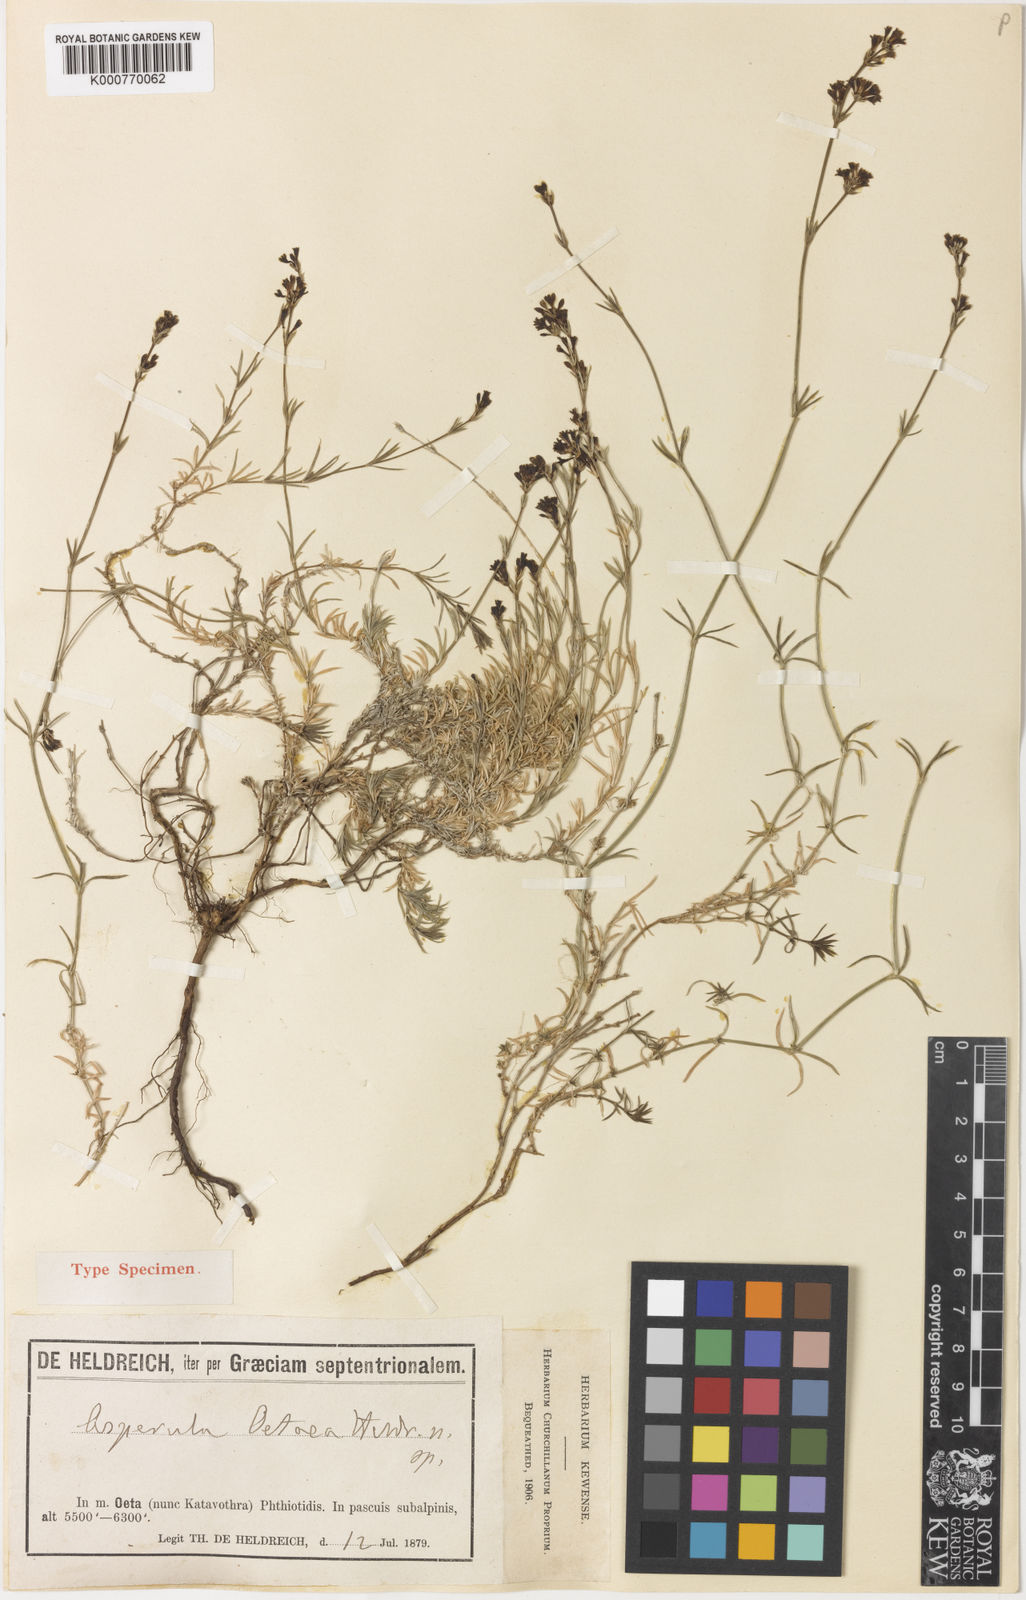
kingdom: Plantae
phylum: Tracheophyta
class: Magnoliopsida
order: Gentianales
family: Rubiaceae
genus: Asperula
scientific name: Asperula
